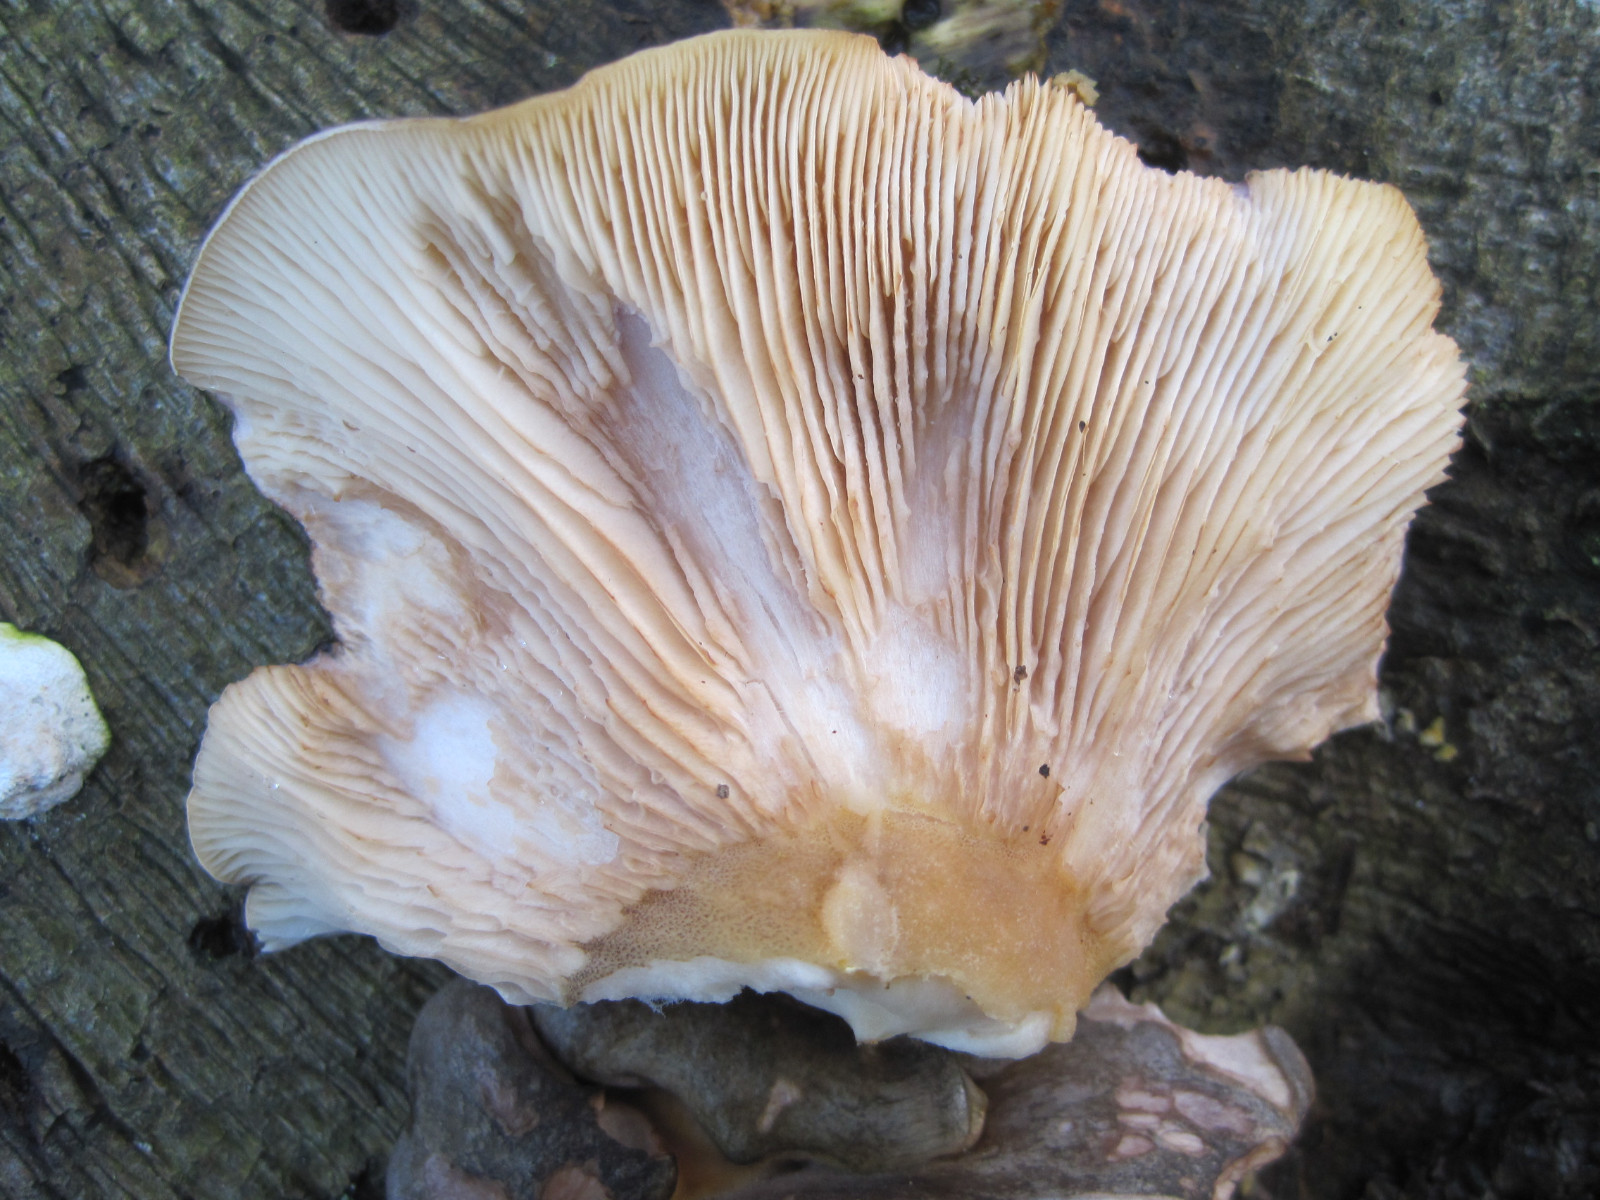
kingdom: Fungi
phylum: Basidiomycota
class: Agaricomycetes
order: Agaricales
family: Sarcomyxaceae
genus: Sarcomyxa
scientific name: Sarcomyxa serotina
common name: gummihat
